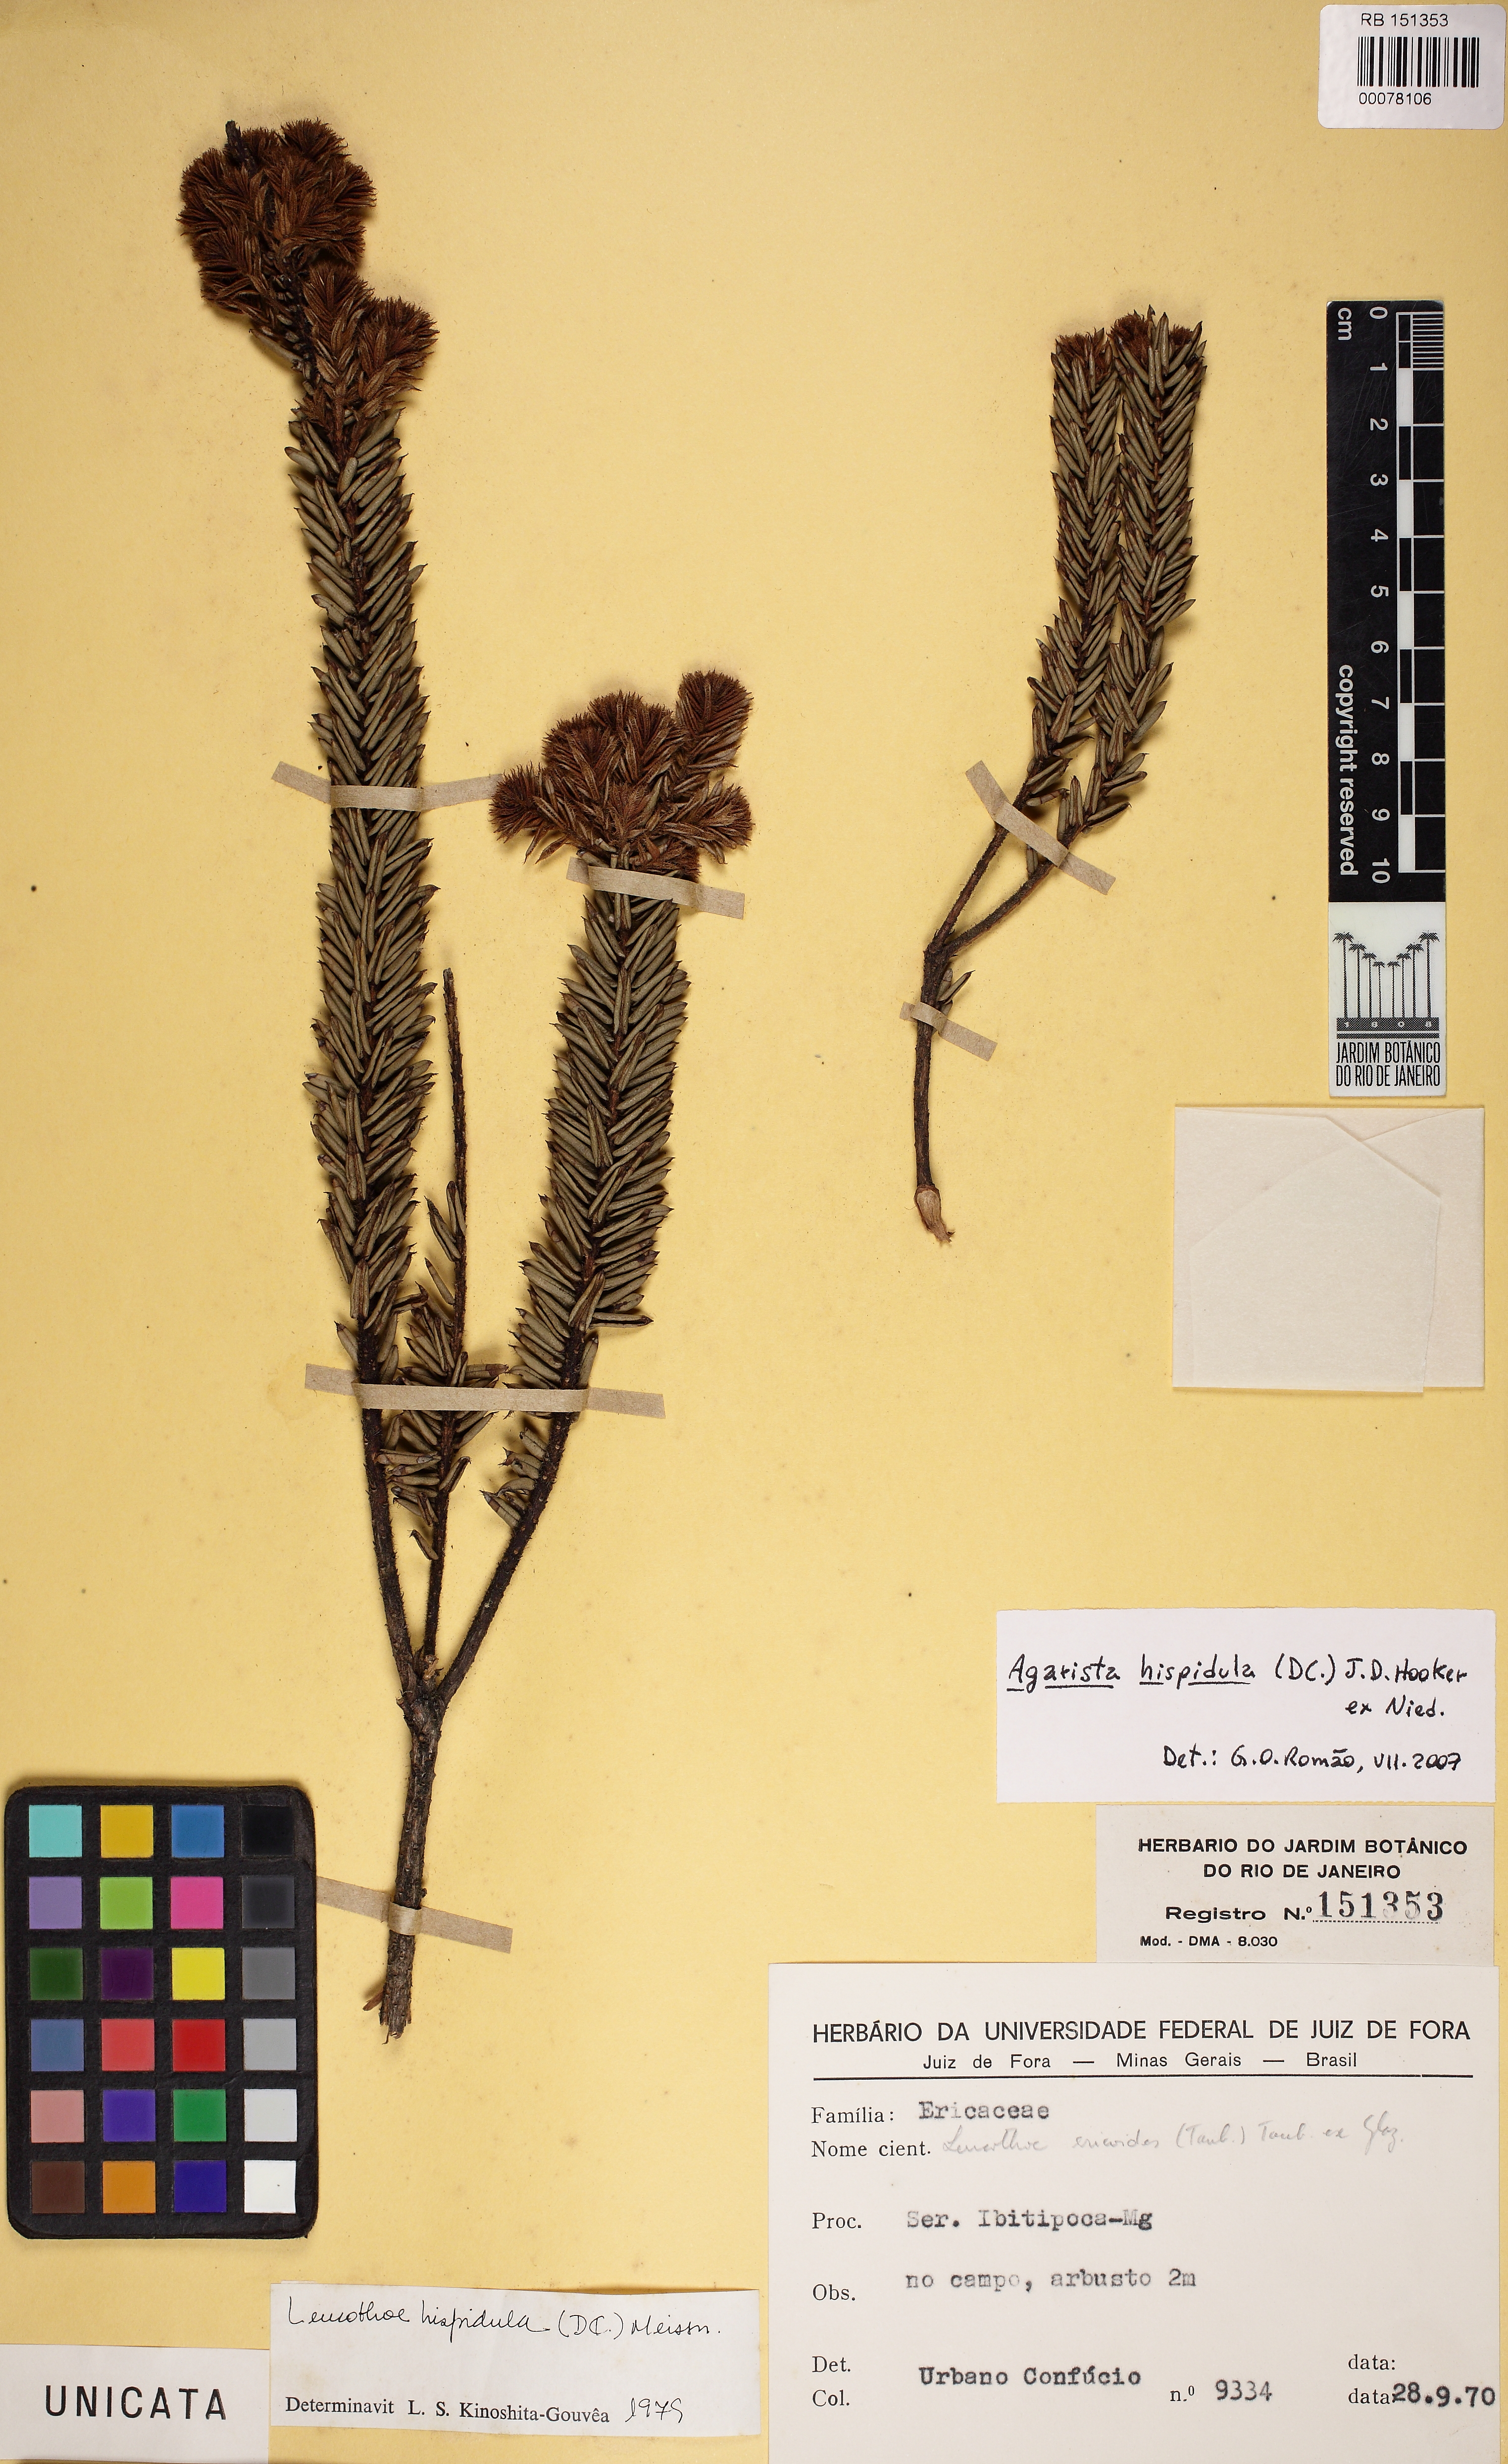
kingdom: Plantae
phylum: Tracheophyta
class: Magnoliopsida
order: Ericales
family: Ericaceae
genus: Agarista
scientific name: Agarista ericoides
